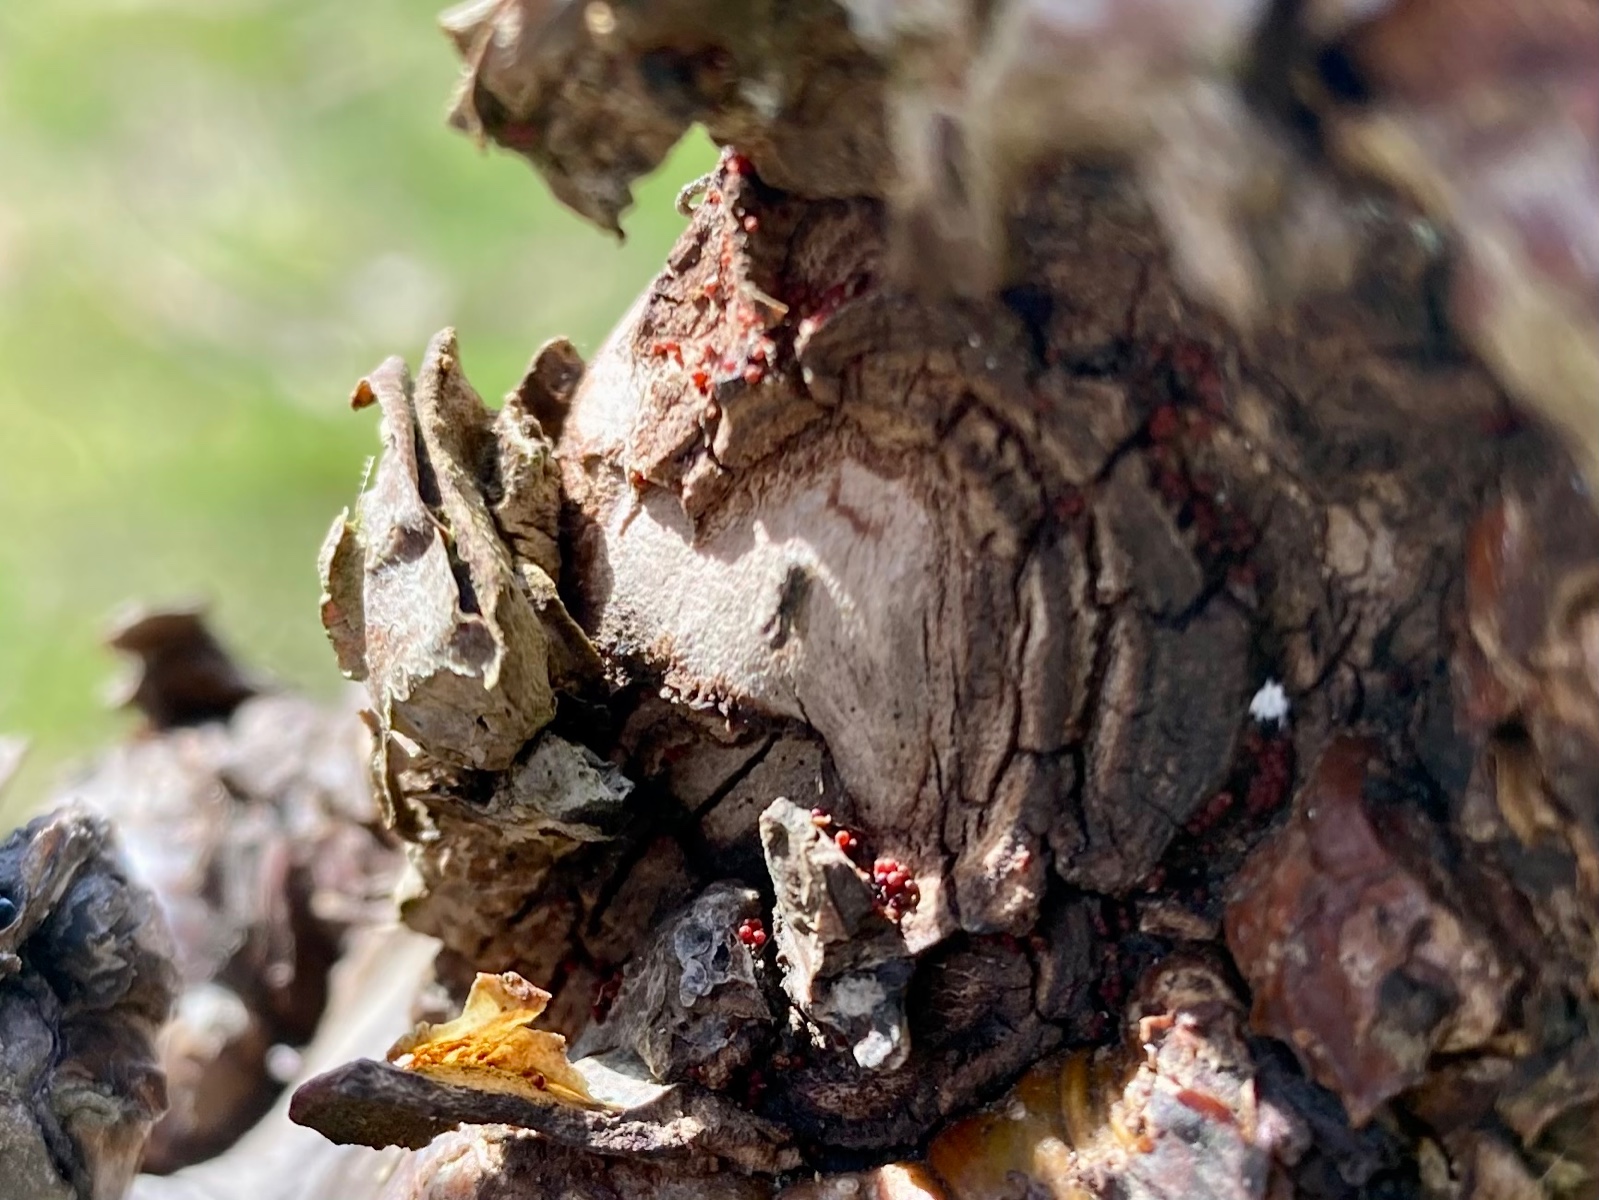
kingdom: Fungi
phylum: Ascomycota
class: Sordariomycetes
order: Hypocreales
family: Nectriaceae
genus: Neonectria
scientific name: Neonectria ditissima
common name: frugttræ-cinnobersvamp
